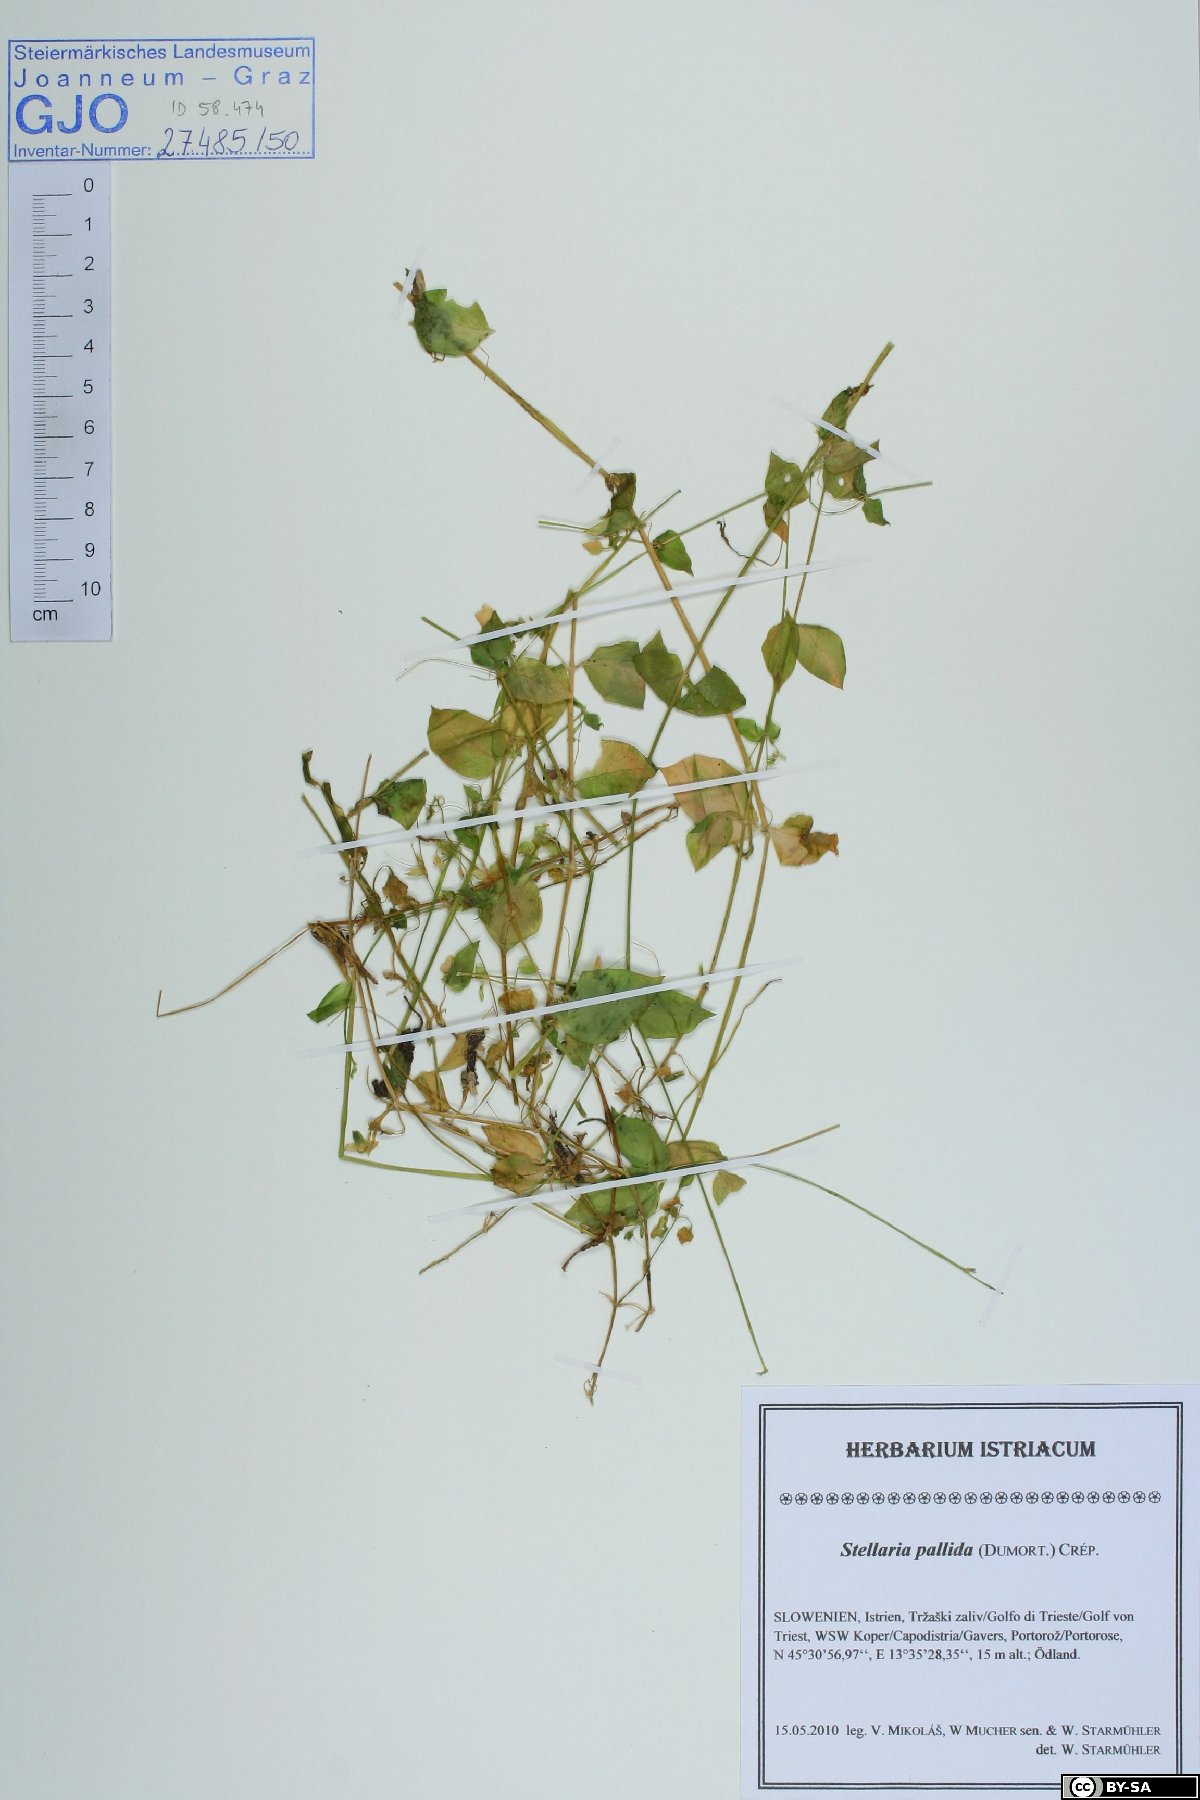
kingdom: Plantae
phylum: Tracheophyta
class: Magnoliopsida
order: Caryophyllales
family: Caryophyllaceae
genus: Stellaria
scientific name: Stellaria apetala
